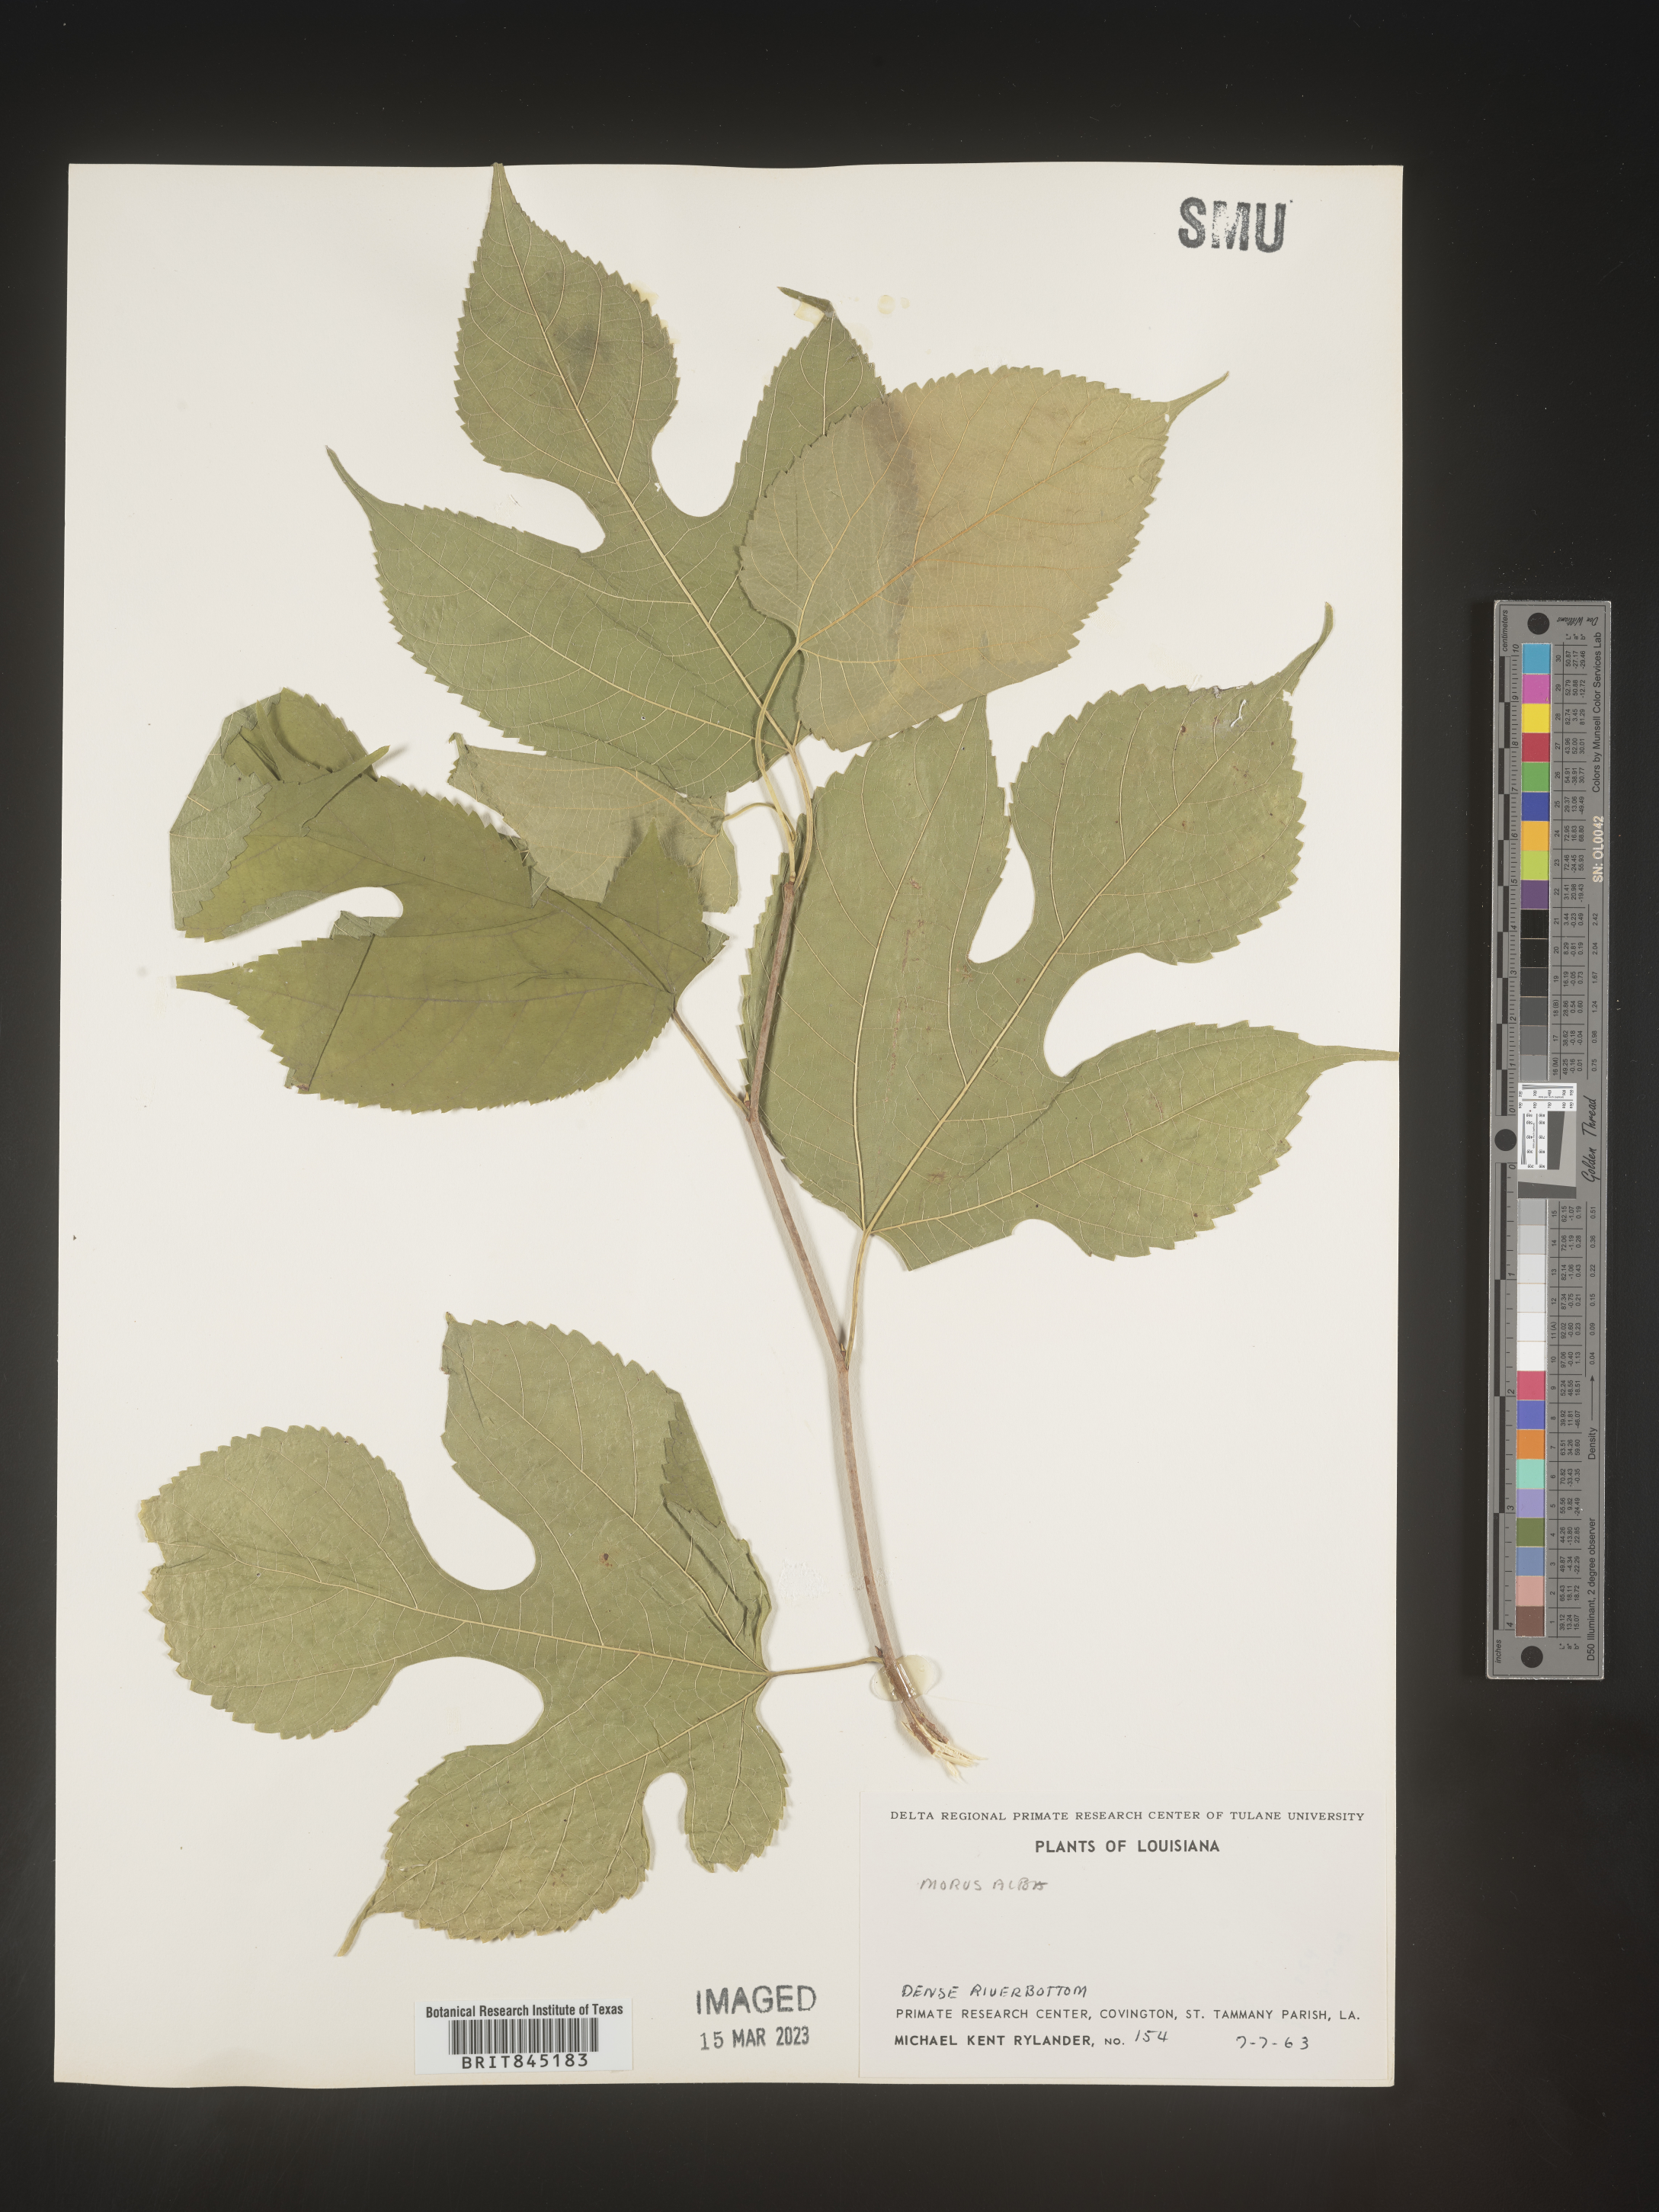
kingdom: Plantae
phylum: Tracheophyta
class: Magnoliopsida
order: Rosales
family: Moraceae
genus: Morus
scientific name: Morus rubra
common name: Red mulberry
